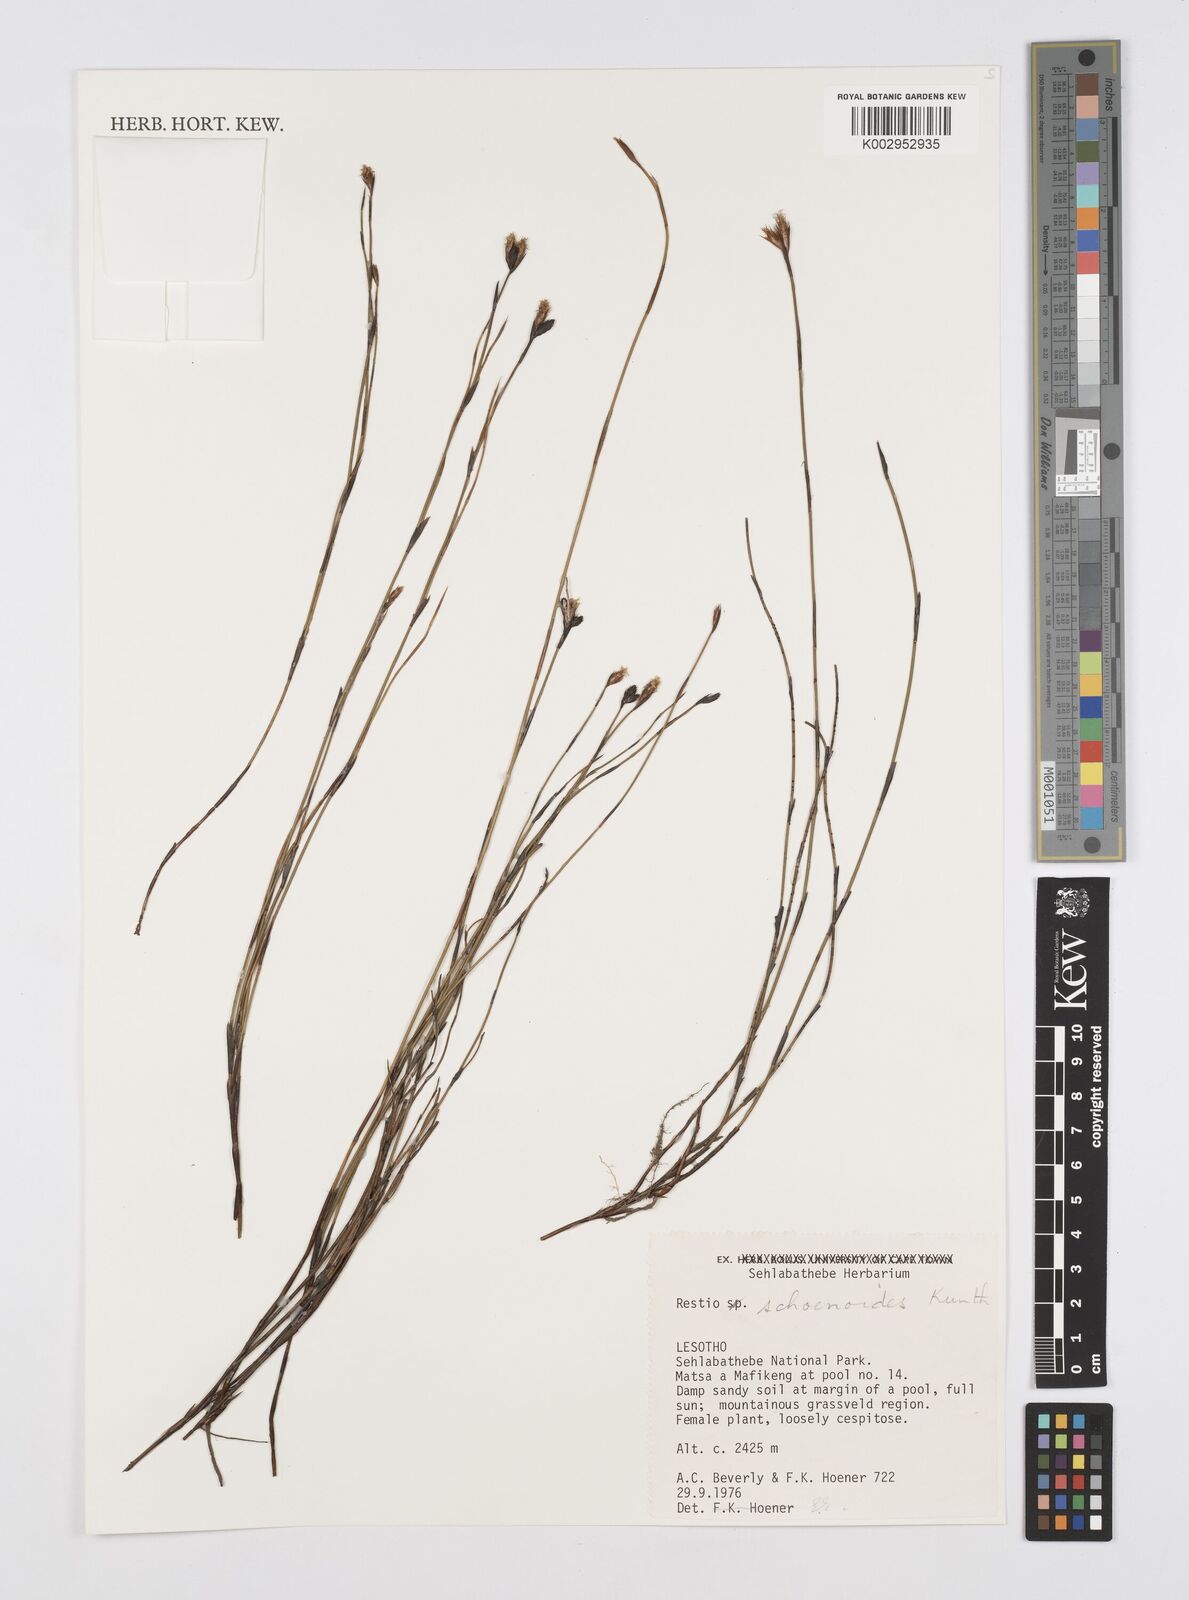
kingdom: Plantae
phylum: Tracheophyta
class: Liliopsida
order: Poales
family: Restionaceae
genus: Restio
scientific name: Restio schoenoides
